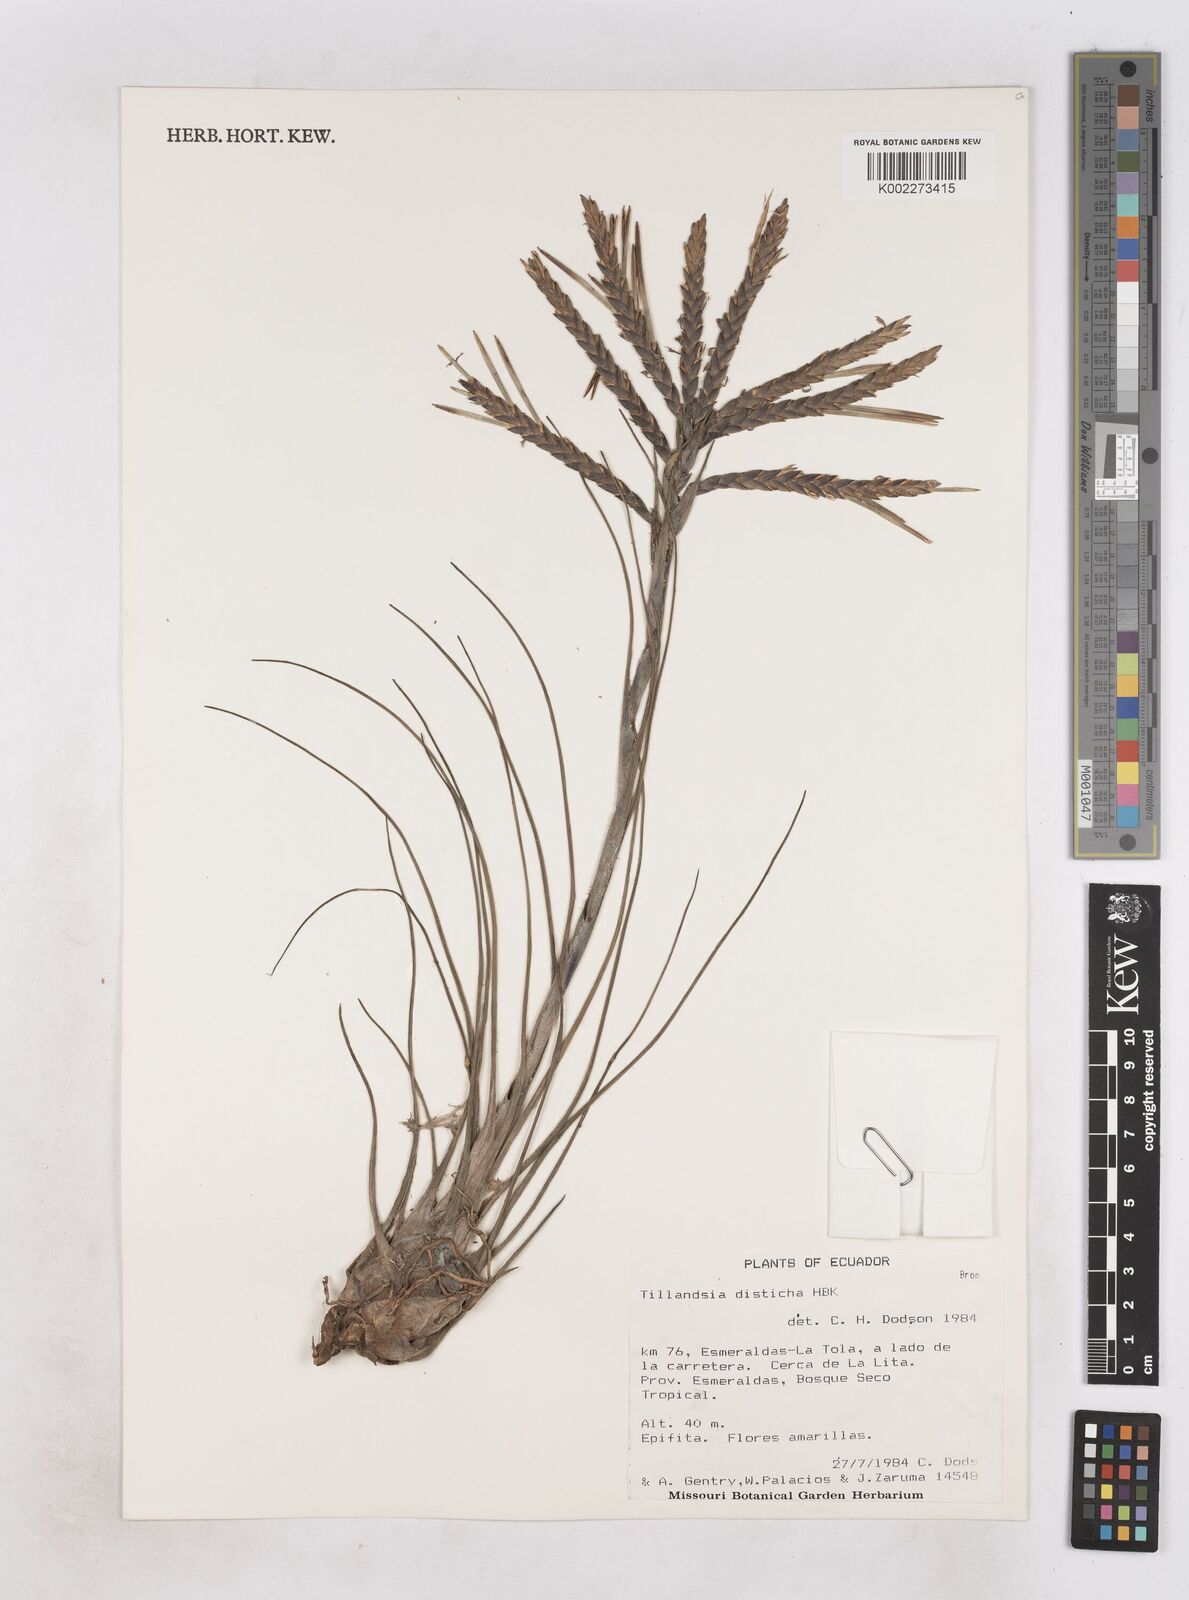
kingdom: Plantae
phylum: Tracheophyta
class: Liliopsida
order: Poales
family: Bromeliaceae
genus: Tillandsia
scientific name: Tillandsia
